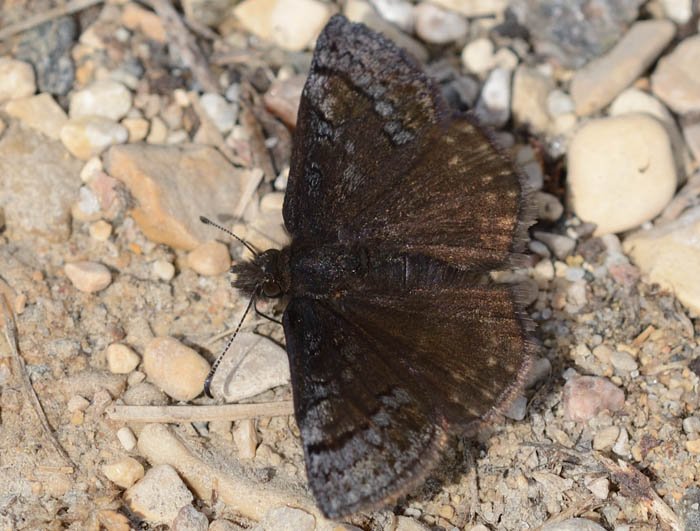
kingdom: Animalia
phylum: Arthropoda
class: Insecta
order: Lepidoptera
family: Hesperiidae
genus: Erynnis
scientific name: Erynnis
